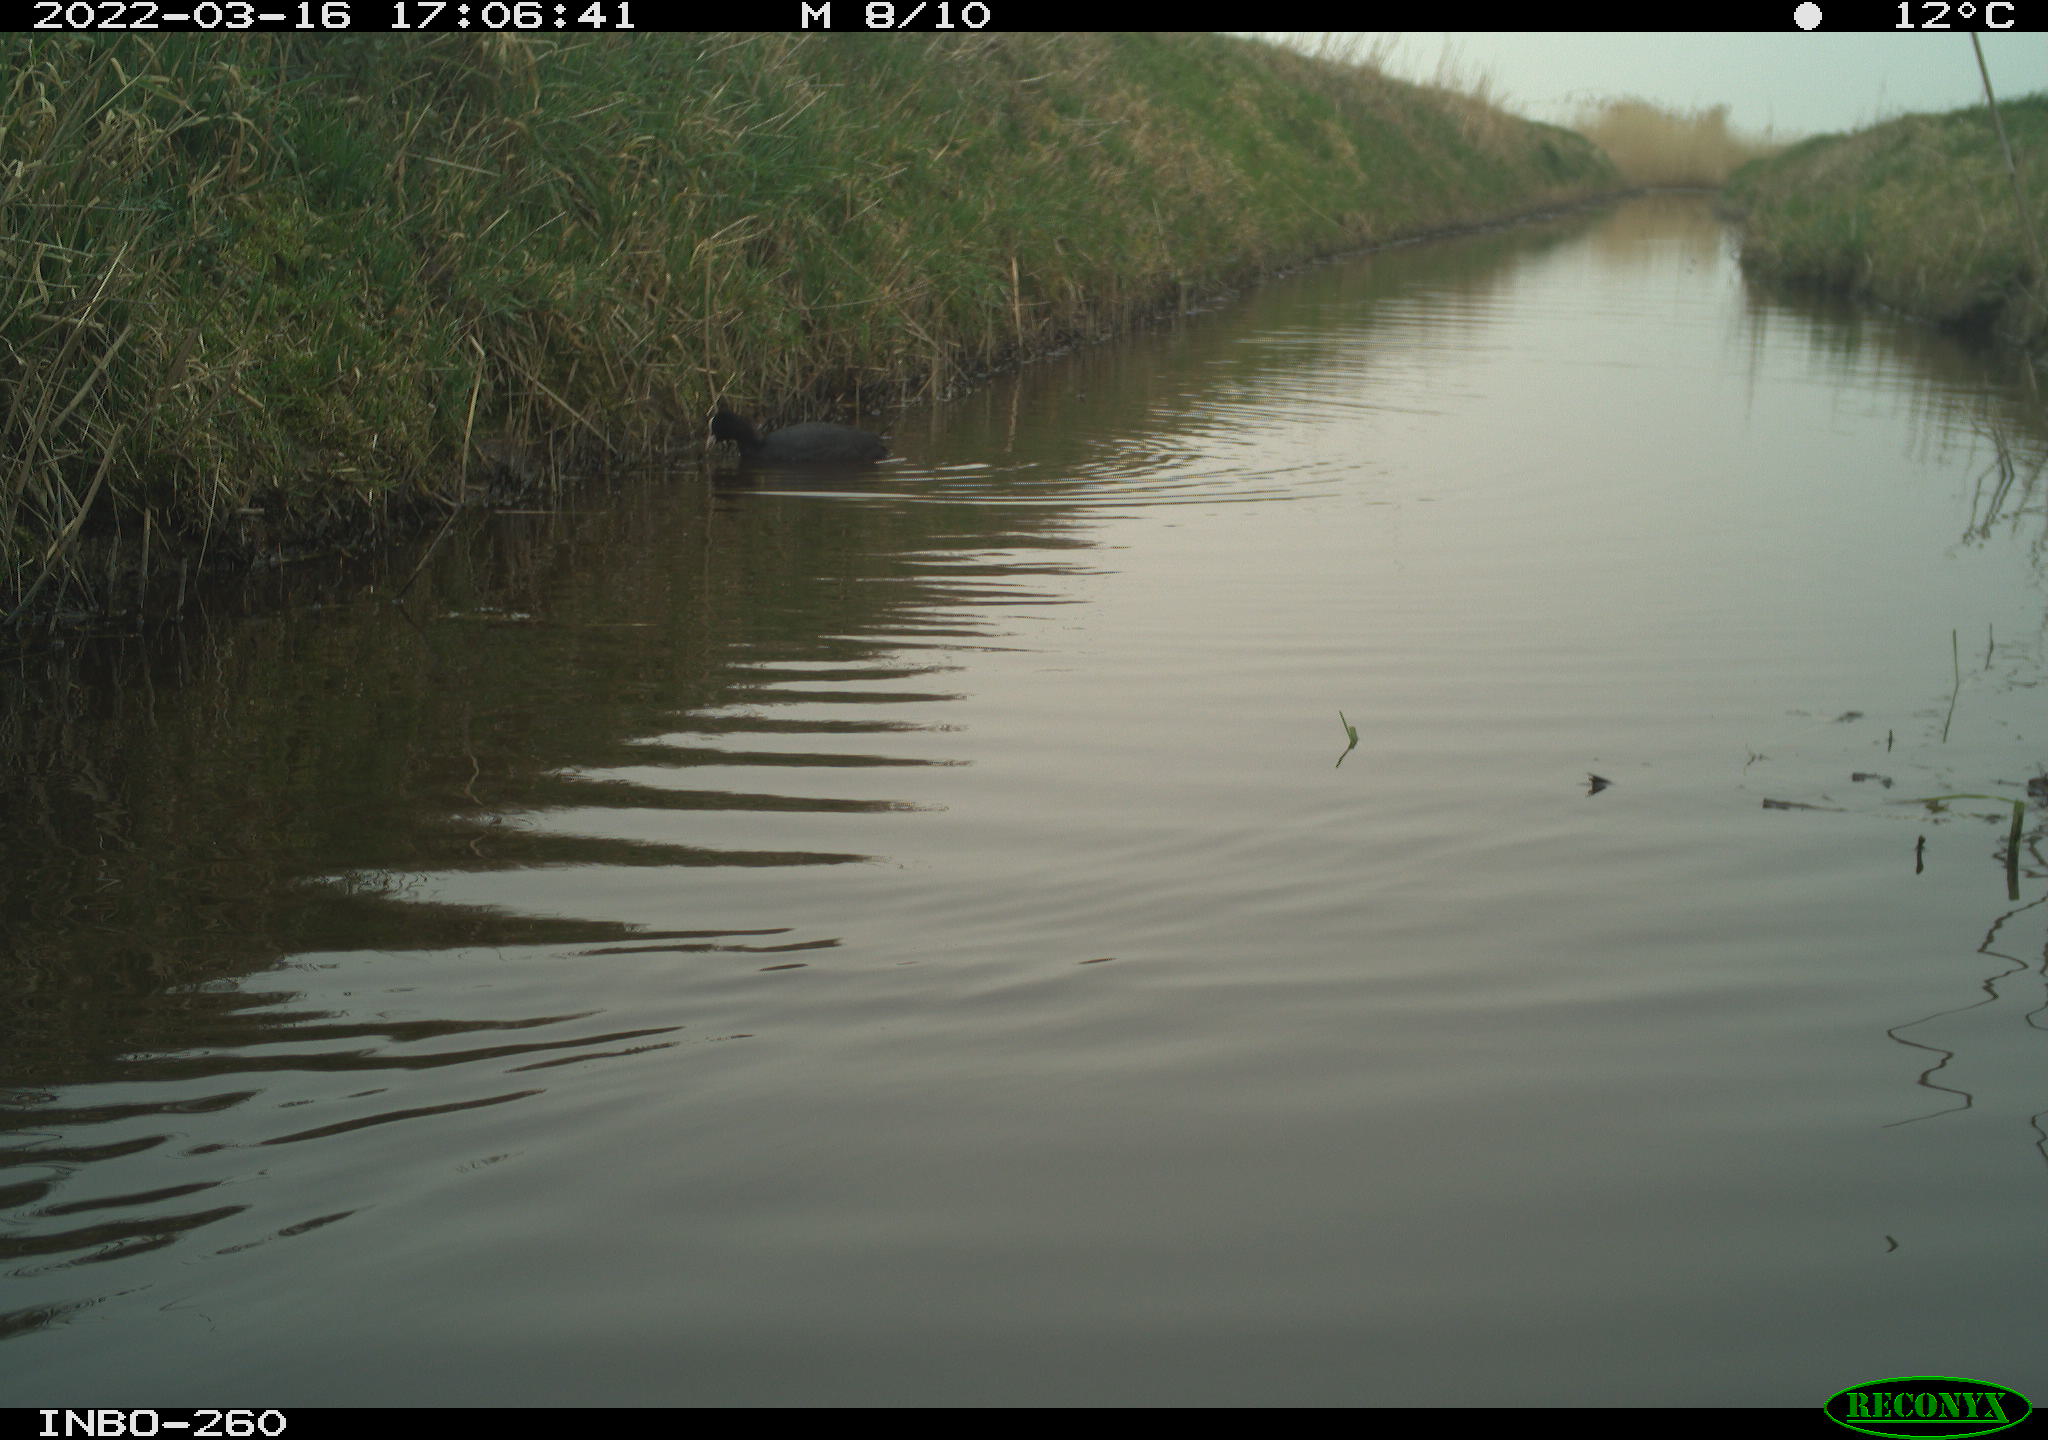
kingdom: Animalia
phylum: Chordata
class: Aves
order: Gruiformes
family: Rallidae
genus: Fulica
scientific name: Fulica atra
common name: Eurasian coot
